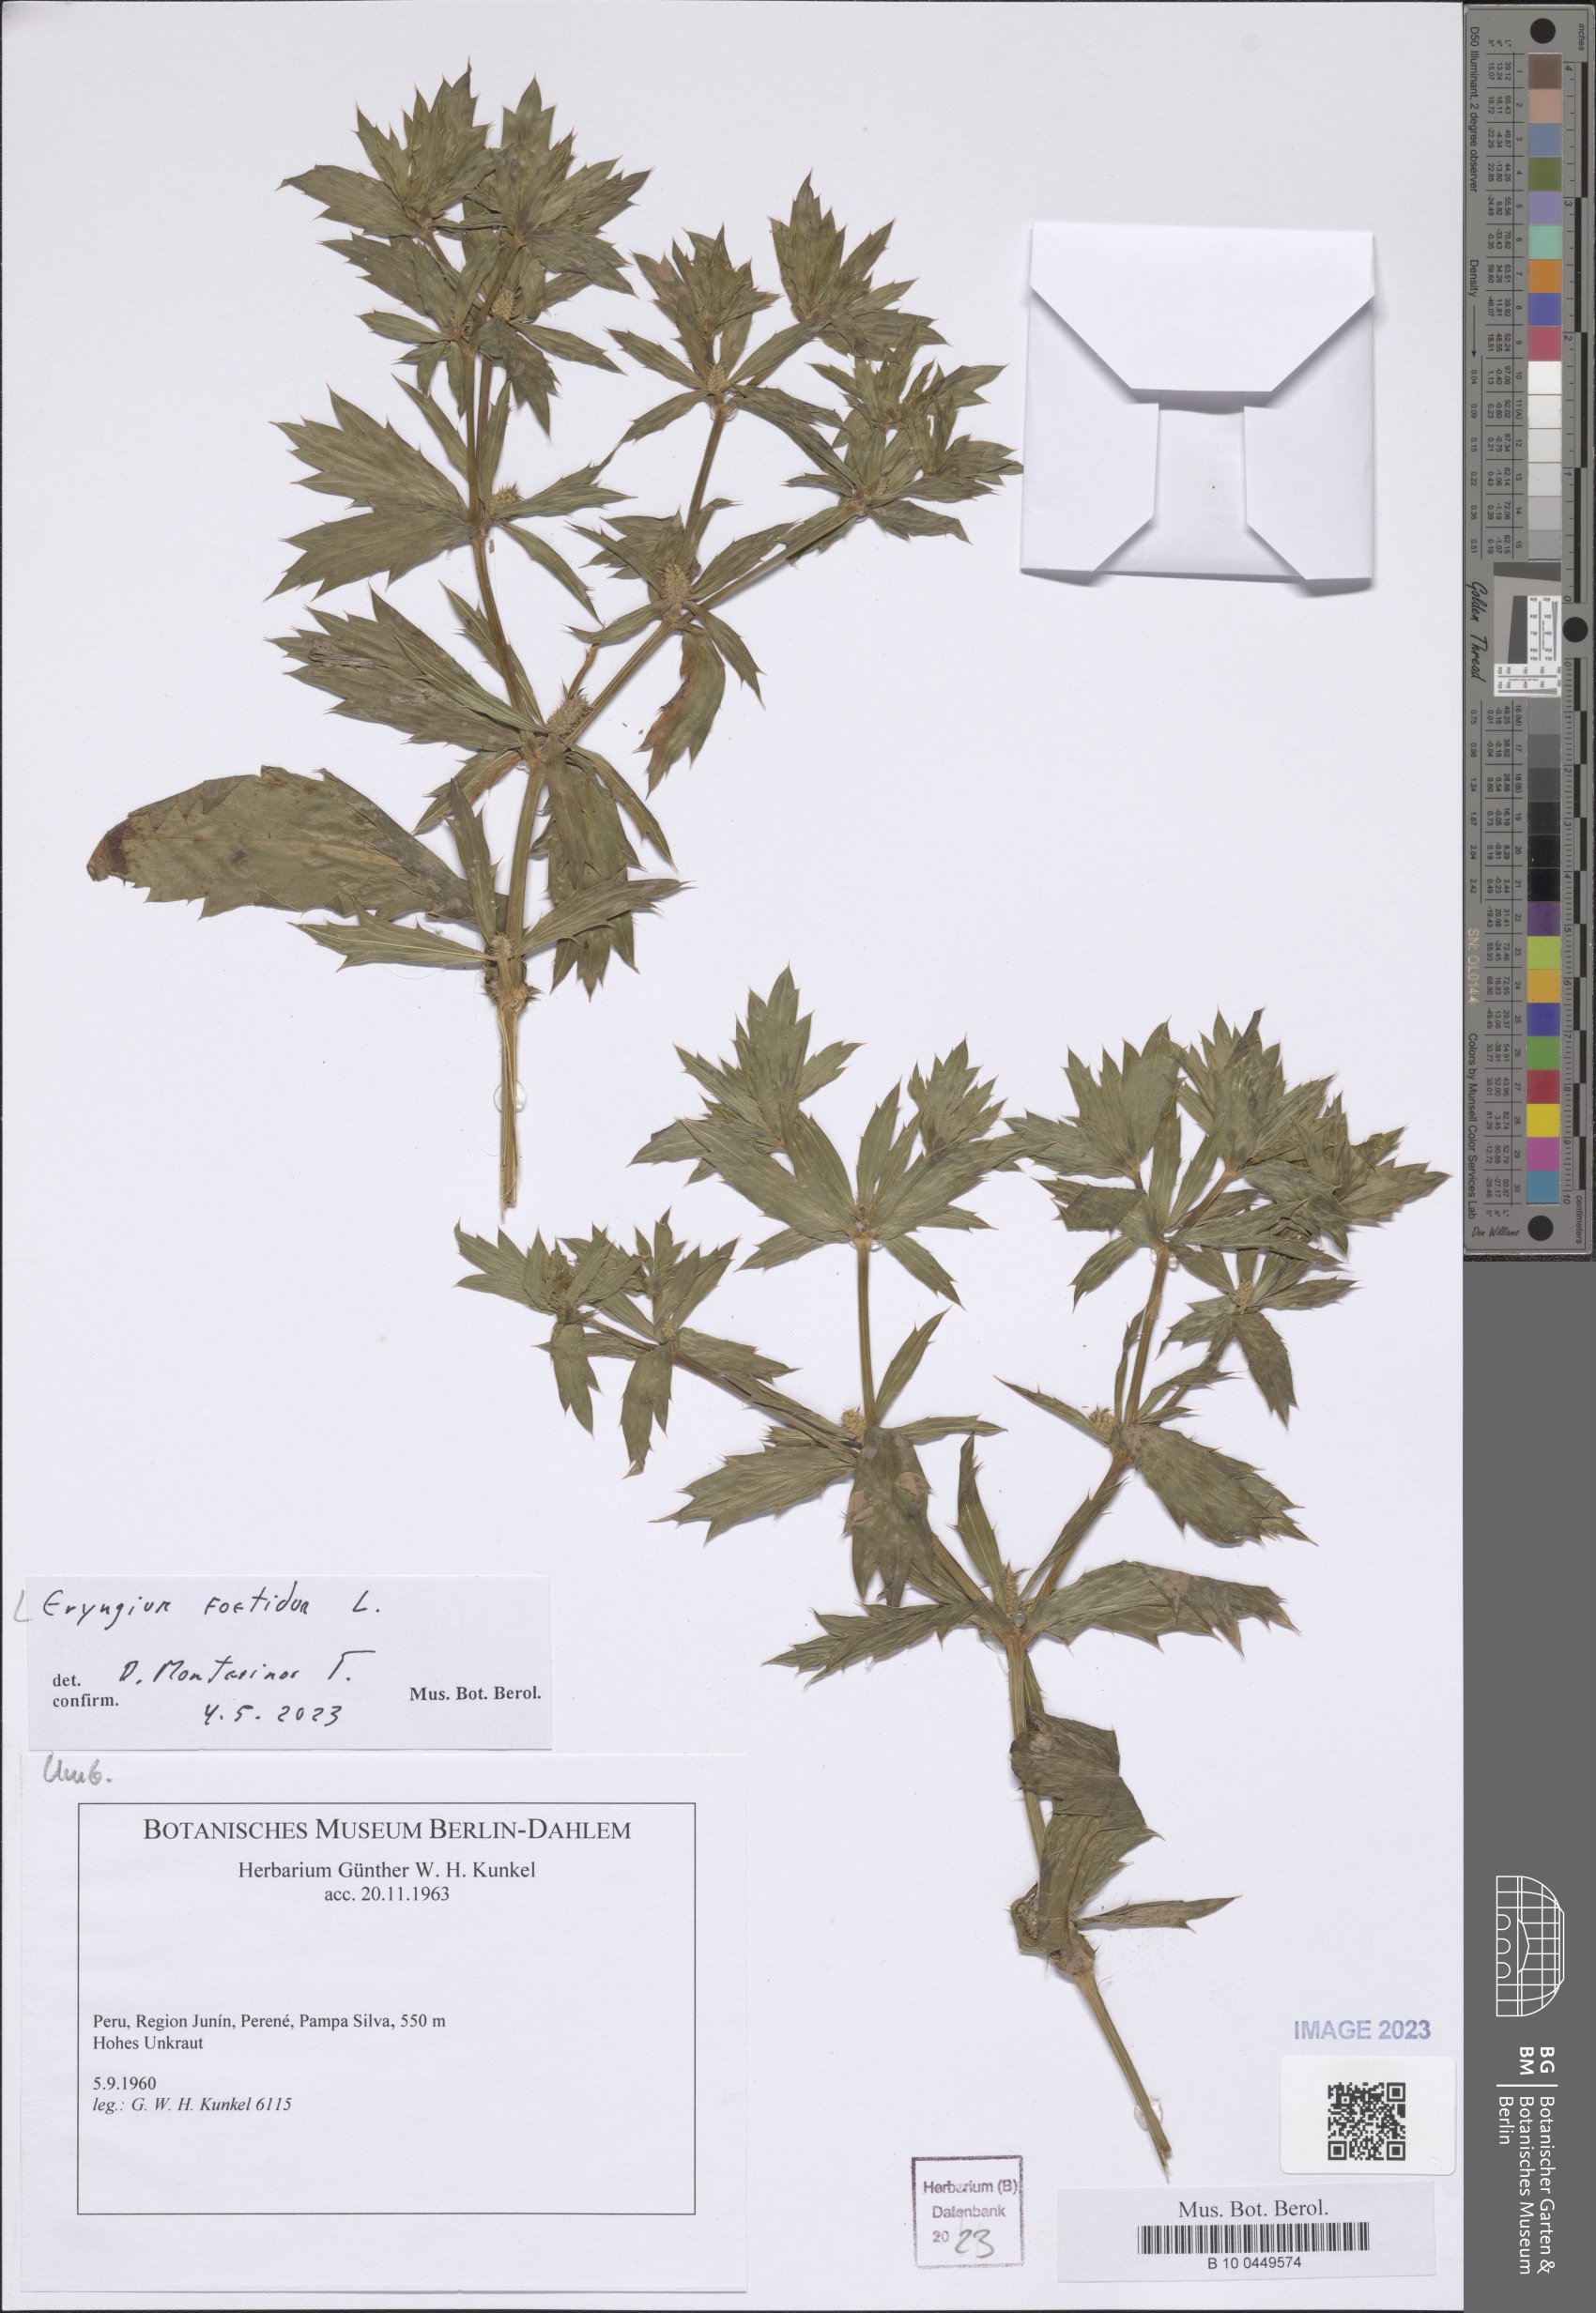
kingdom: Plantae
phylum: Tracheophyta
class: Magnoliopsida
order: Apiales
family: Apiaceae
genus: Eryngium
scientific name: Eryngium foetidum
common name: Fitweed
